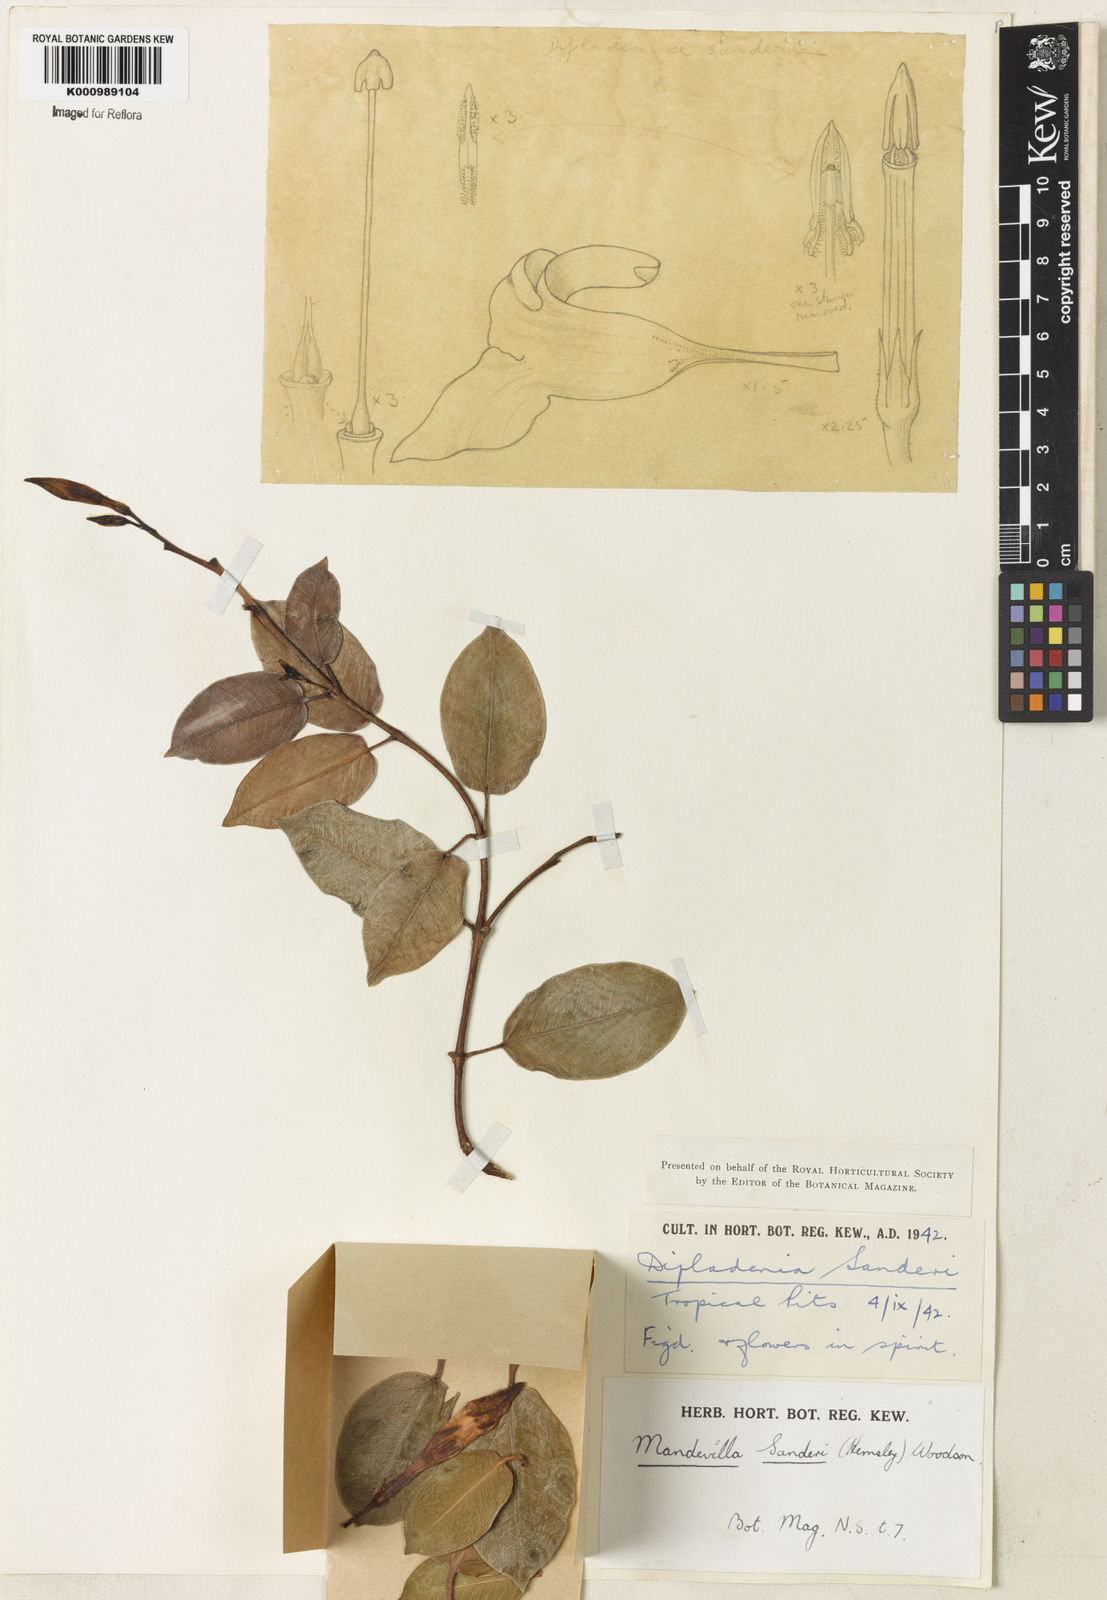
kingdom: Plantae
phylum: Tracheophyta
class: Magnoliopsida
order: Gentianales
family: Apocynaceae
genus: Mandevilla
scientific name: Mandevilla sanderi
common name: Brazilian-jasmine
